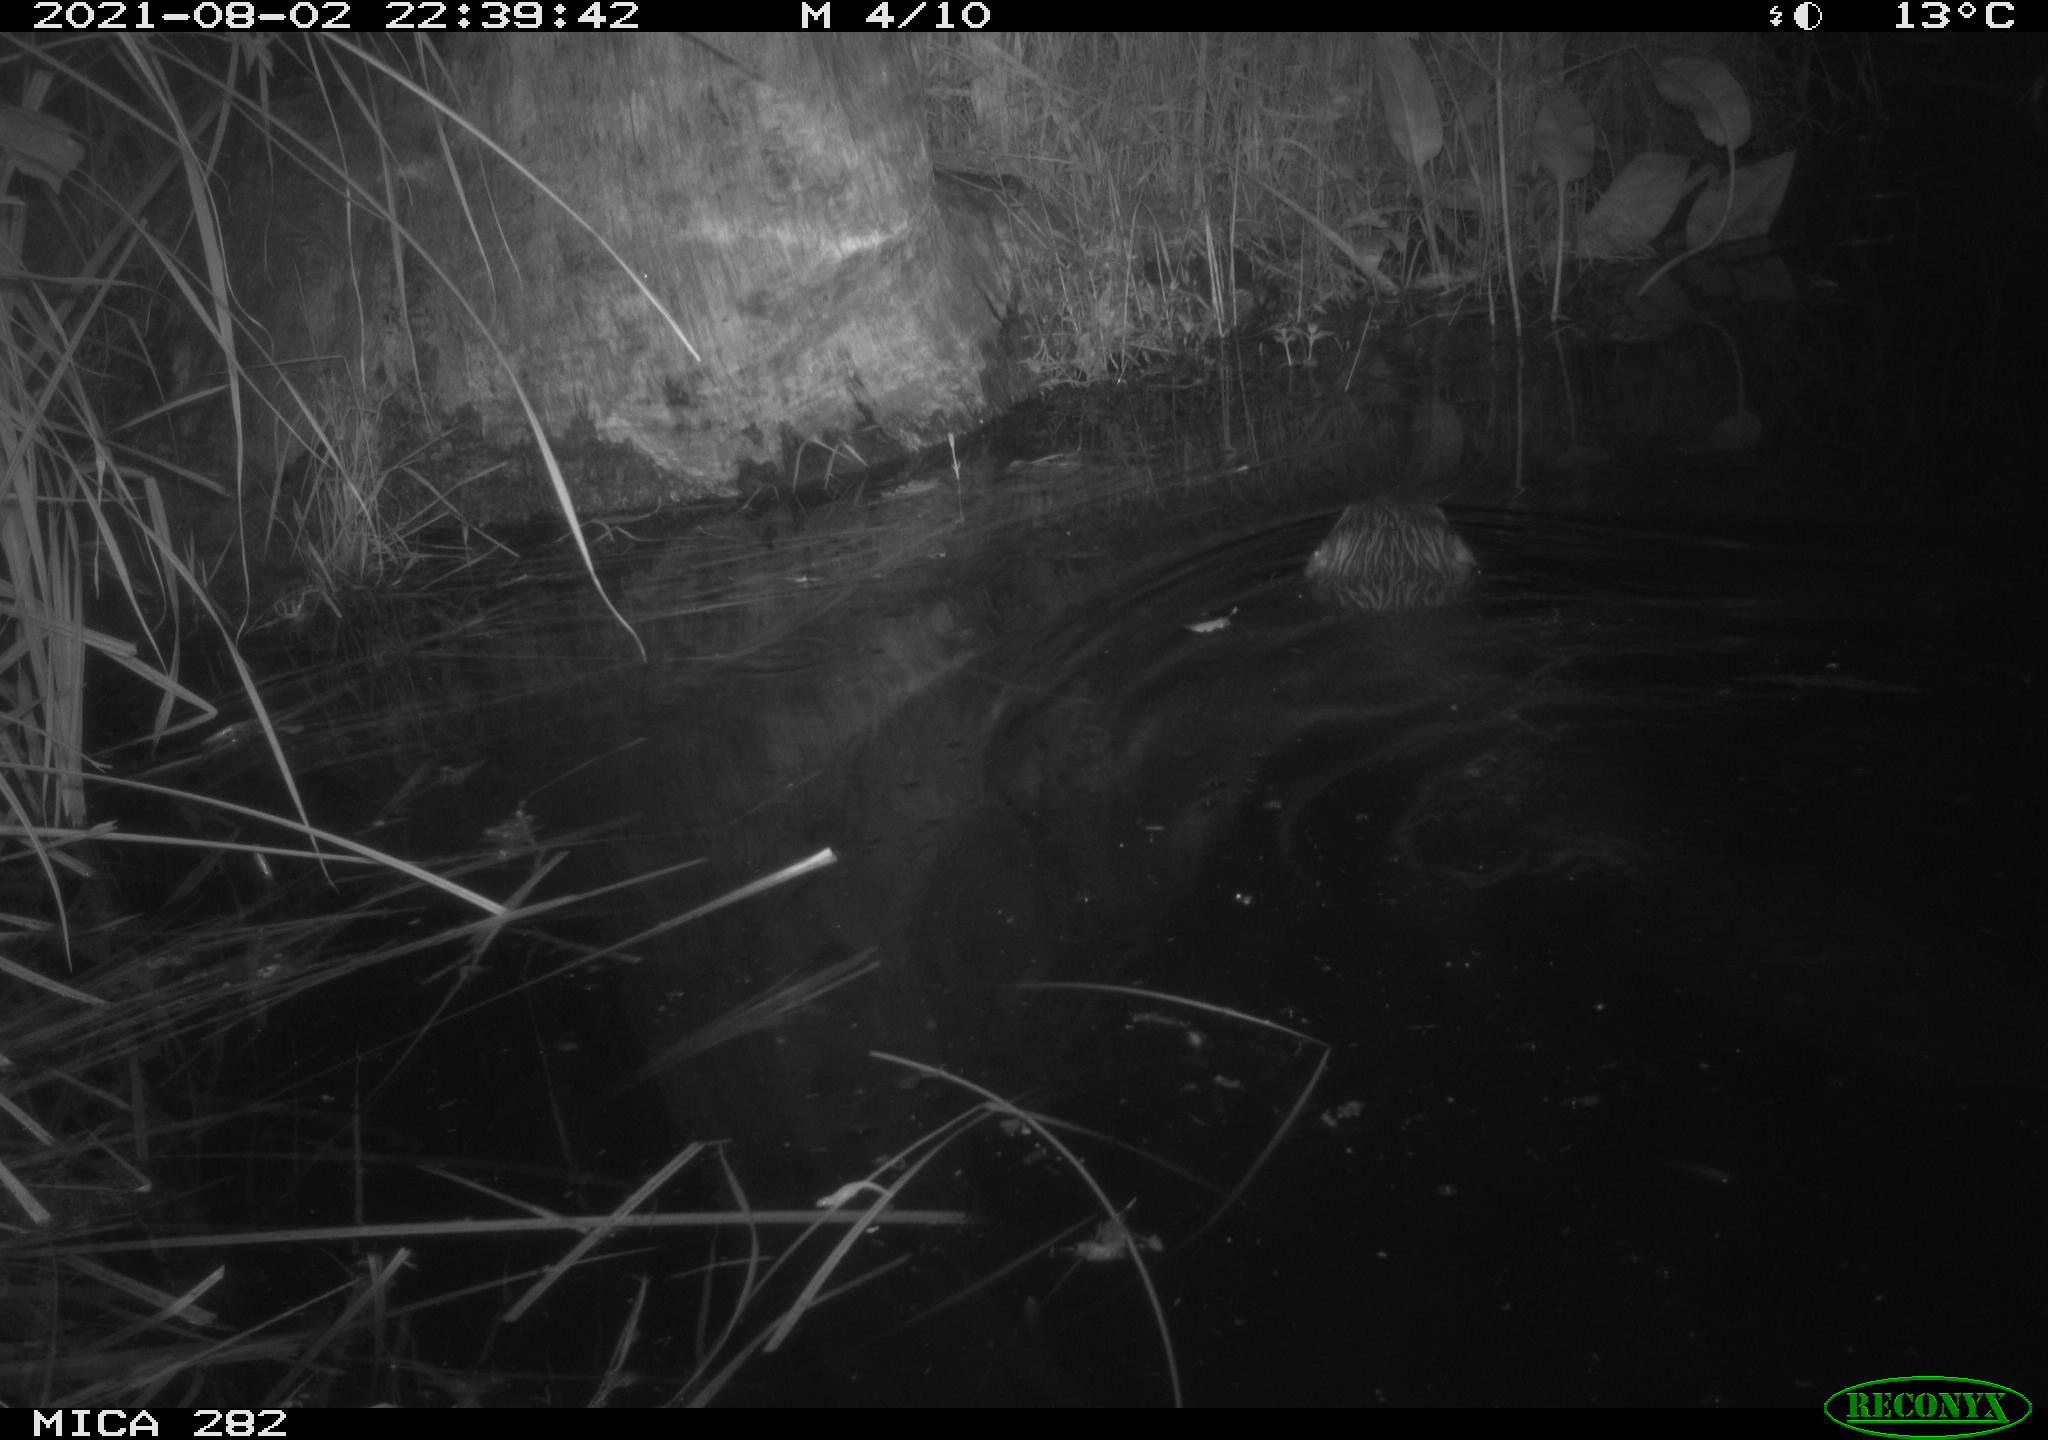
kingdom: Animalia
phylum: Chordata
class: Mammalia
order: Rodentia
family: Castoridae
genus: Castor
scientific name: Castor fiber
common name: Eurasian beaver
